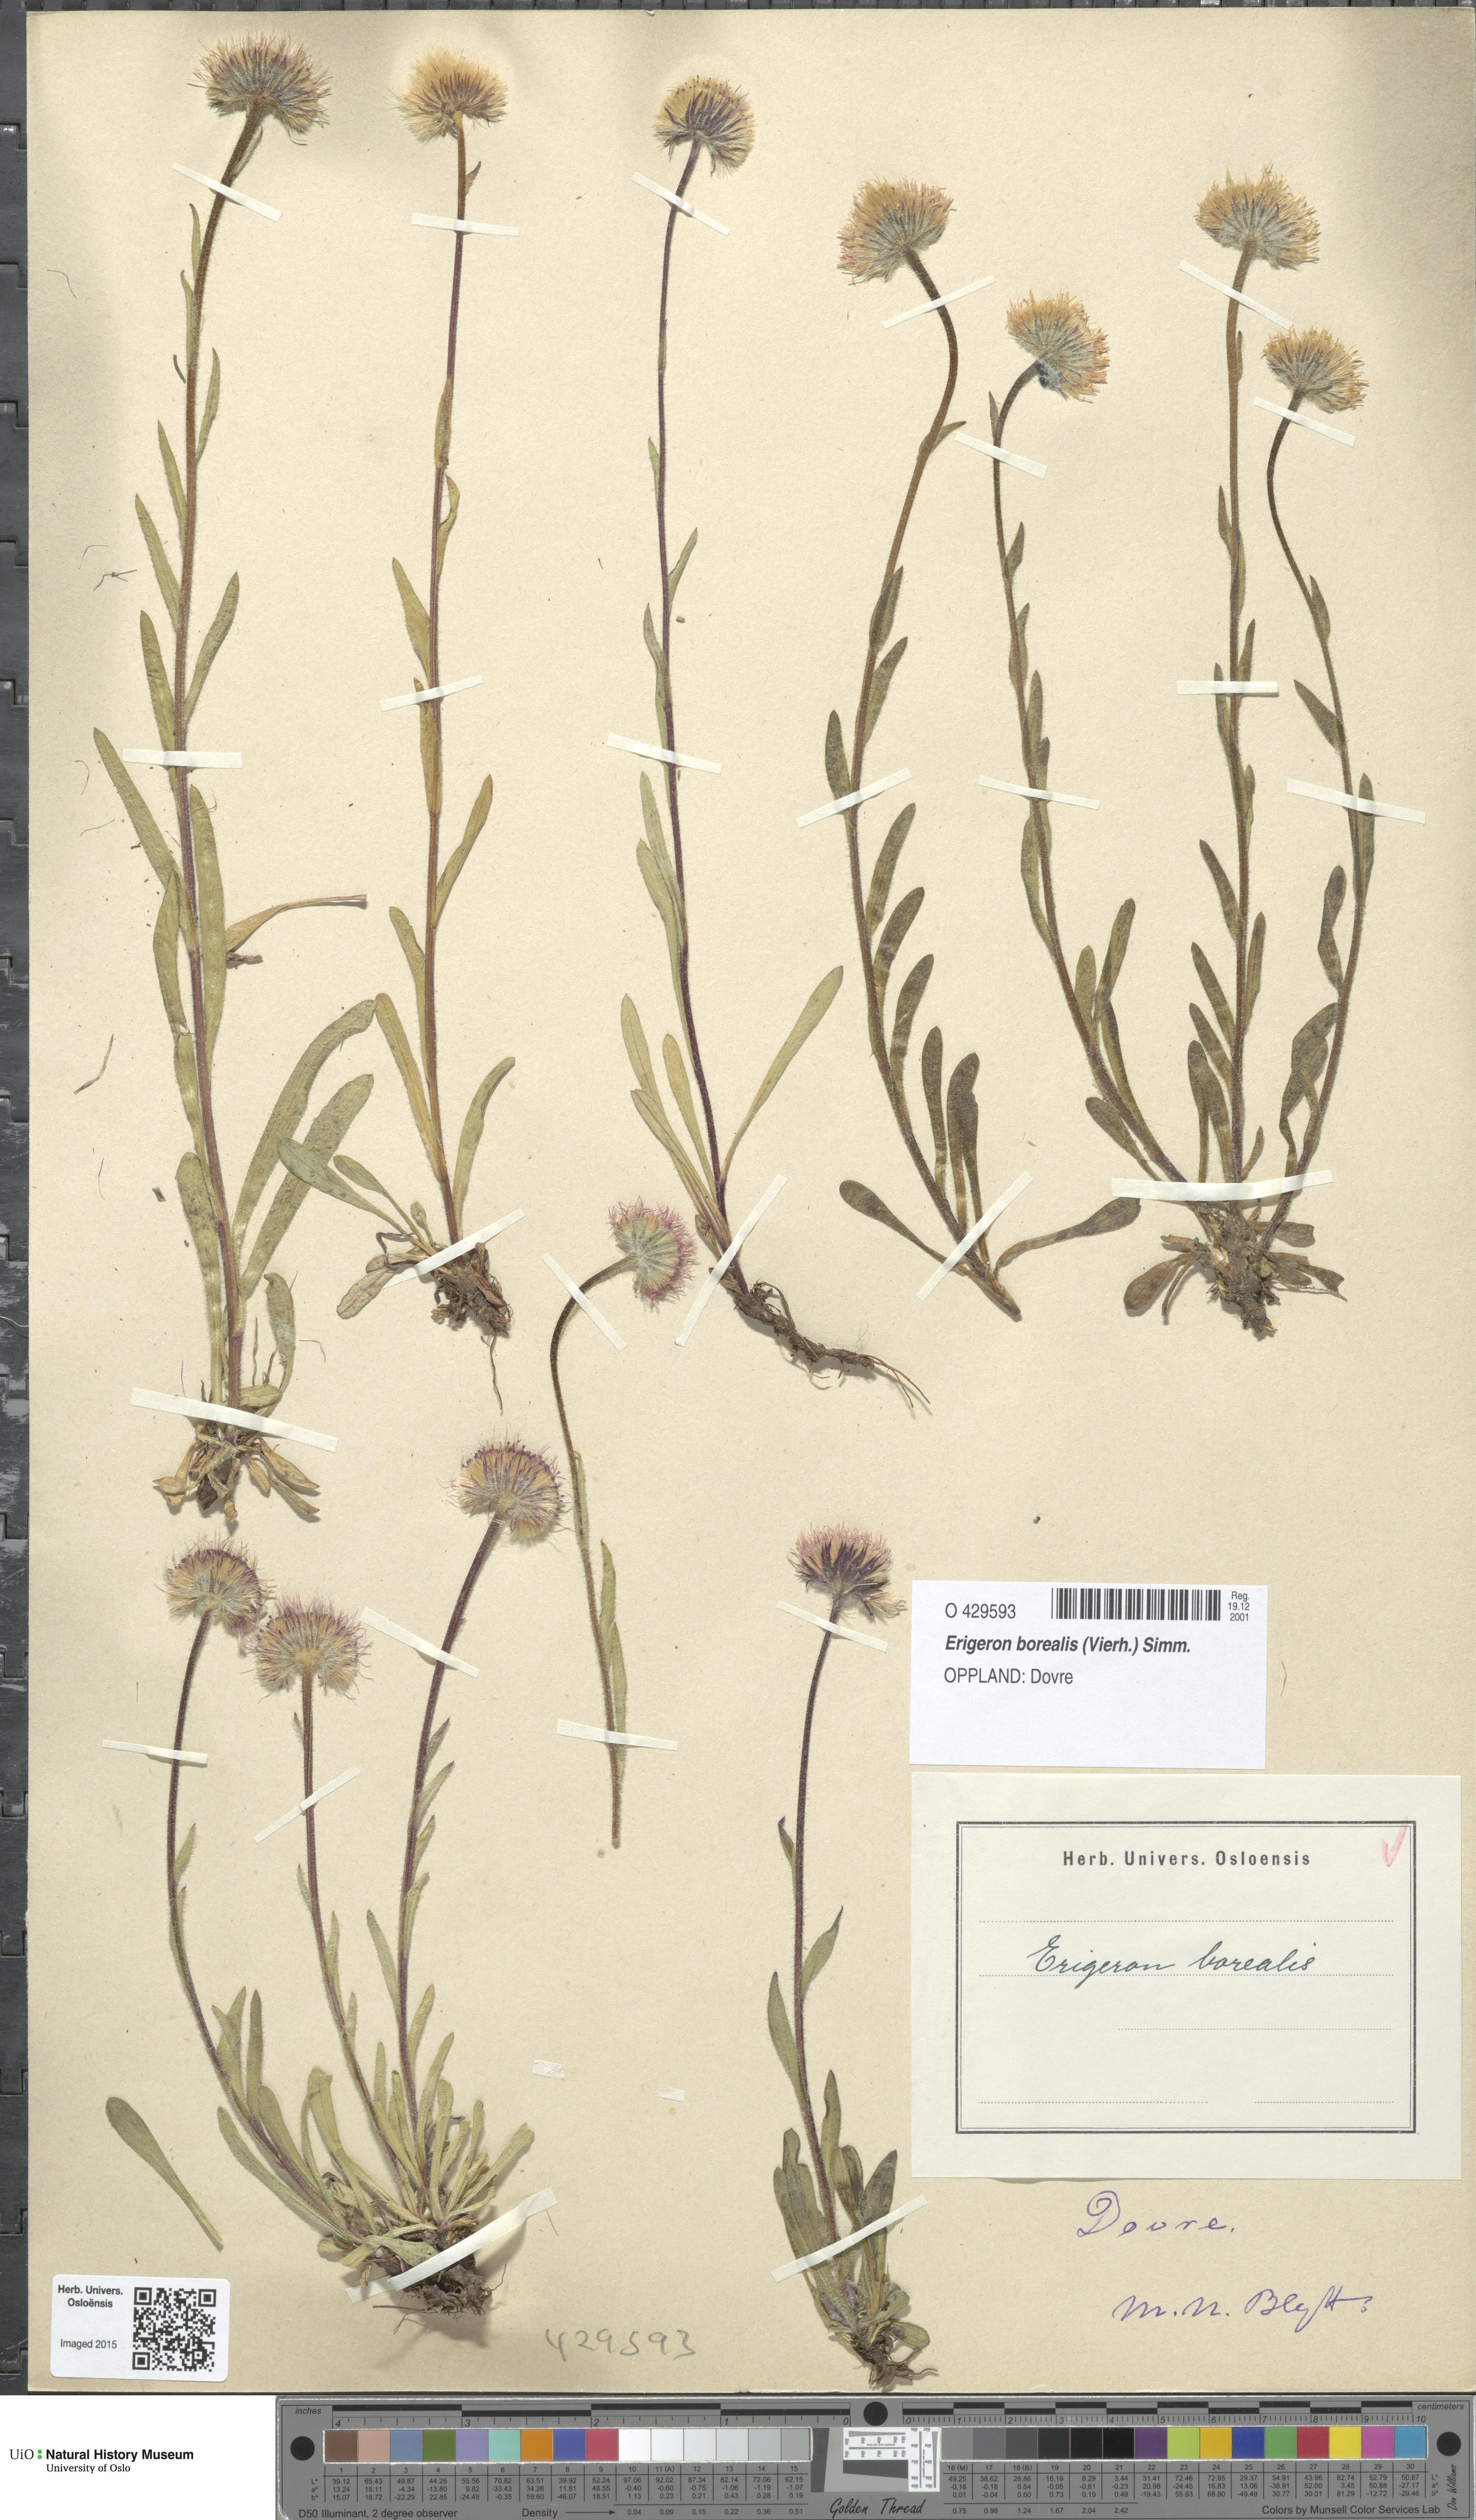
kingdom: Plantae
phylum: Tracheophyta
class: Magnoliopsida
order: Asterales
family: Asteraceae
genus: Erigeron
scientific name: Erigeron borealis
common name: Alpine fleabane
